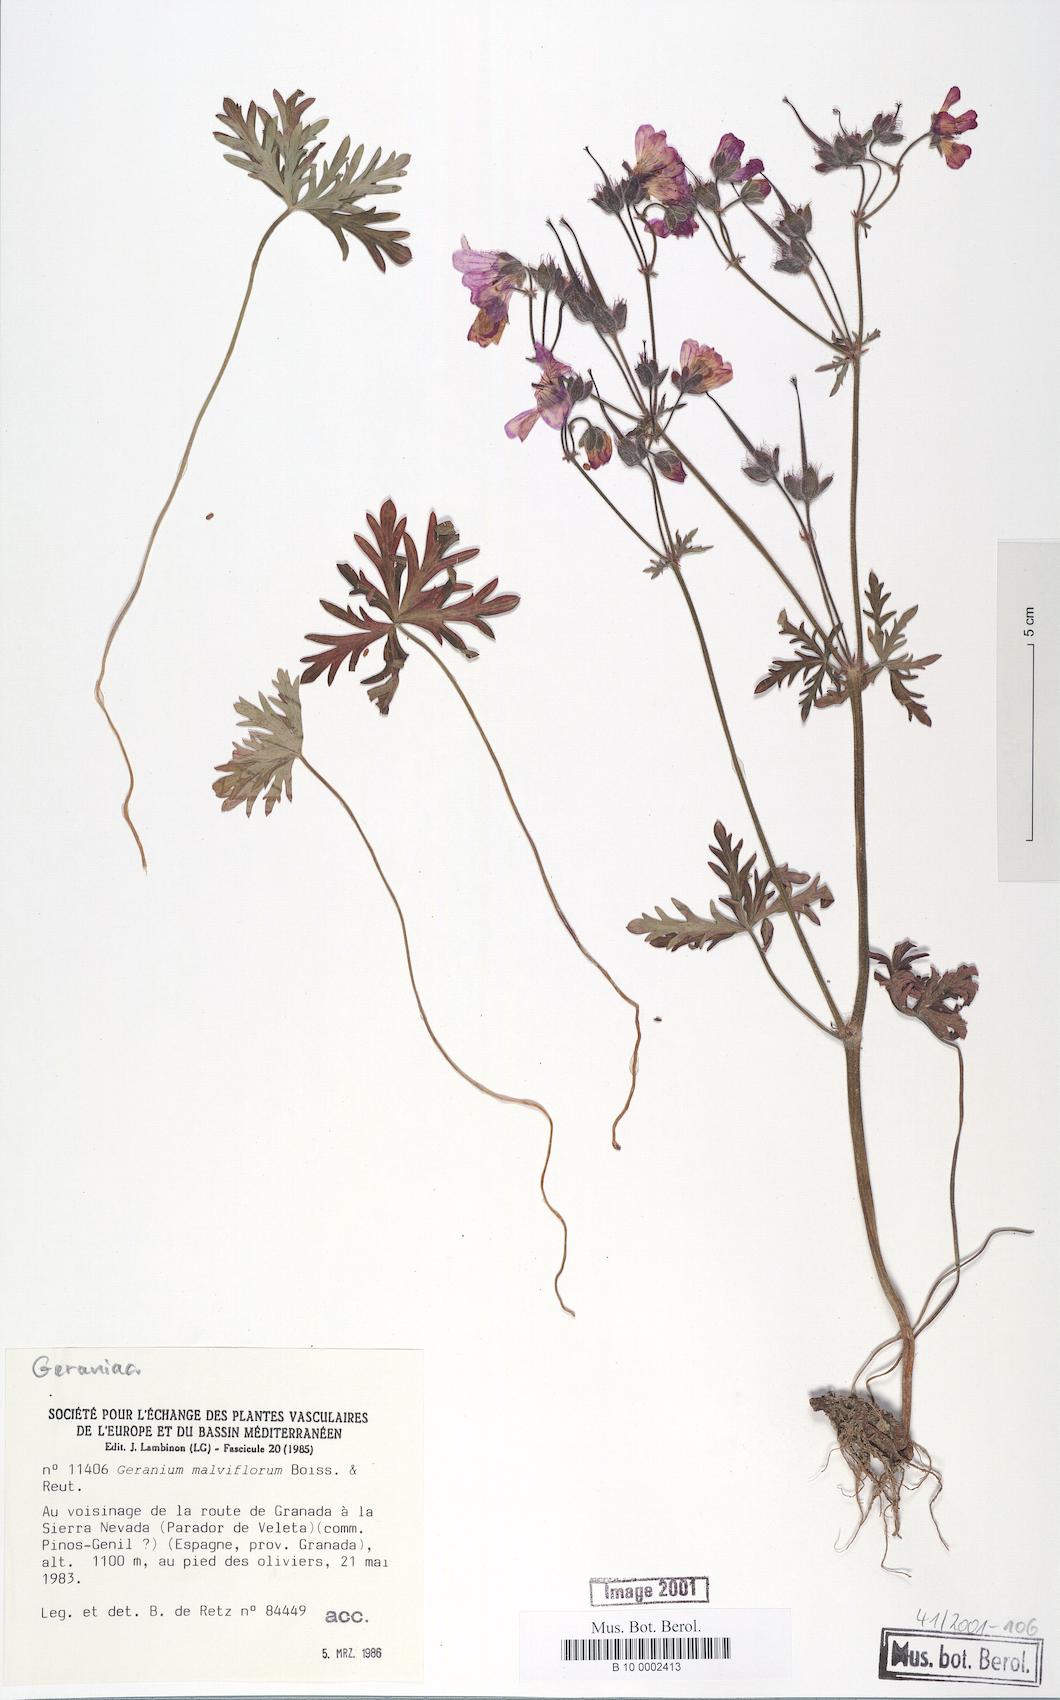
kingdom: Plantae
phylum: Tracheophyta
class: Magnoliopsida
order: Geraniales
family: Geraniaceae
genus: Geranium
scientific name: Geranium malviflorum
